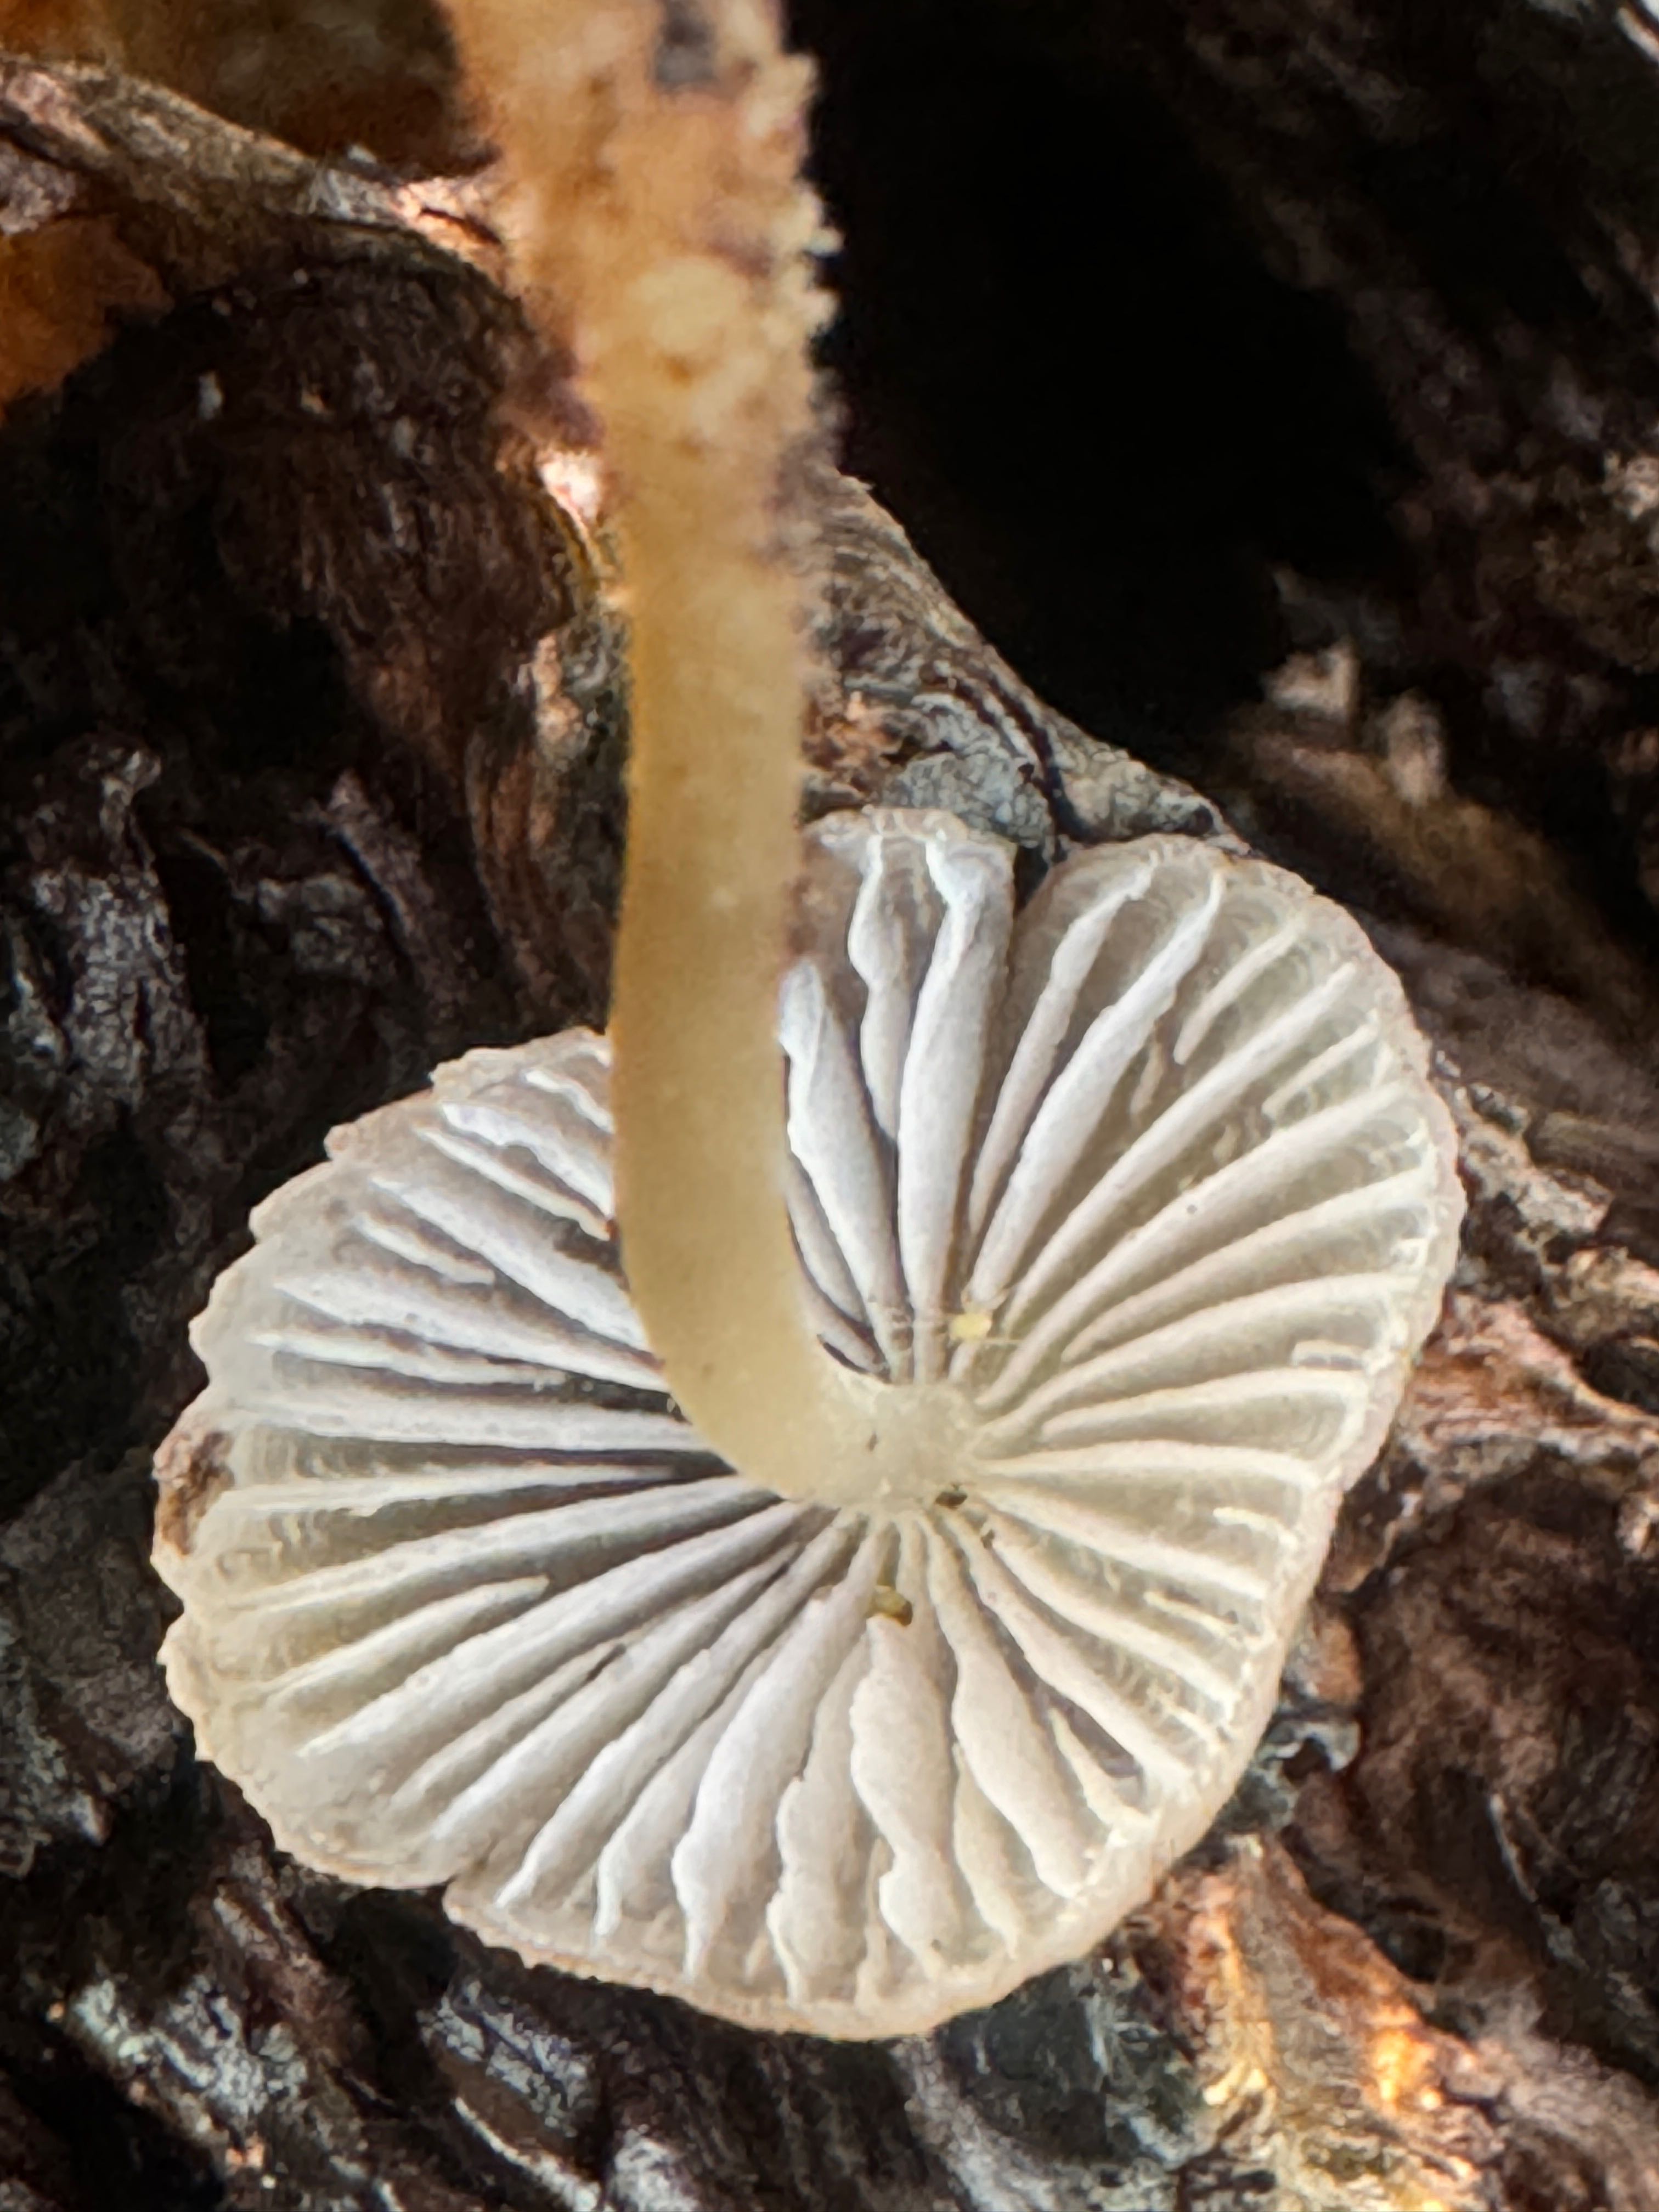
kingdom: Fungi
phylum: Basidiomycota
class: Agaricomycetes
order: Agaricales
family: Mycenaceae
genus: Mycena
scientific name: Mycena inclinata
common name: nikkende huesvamp
